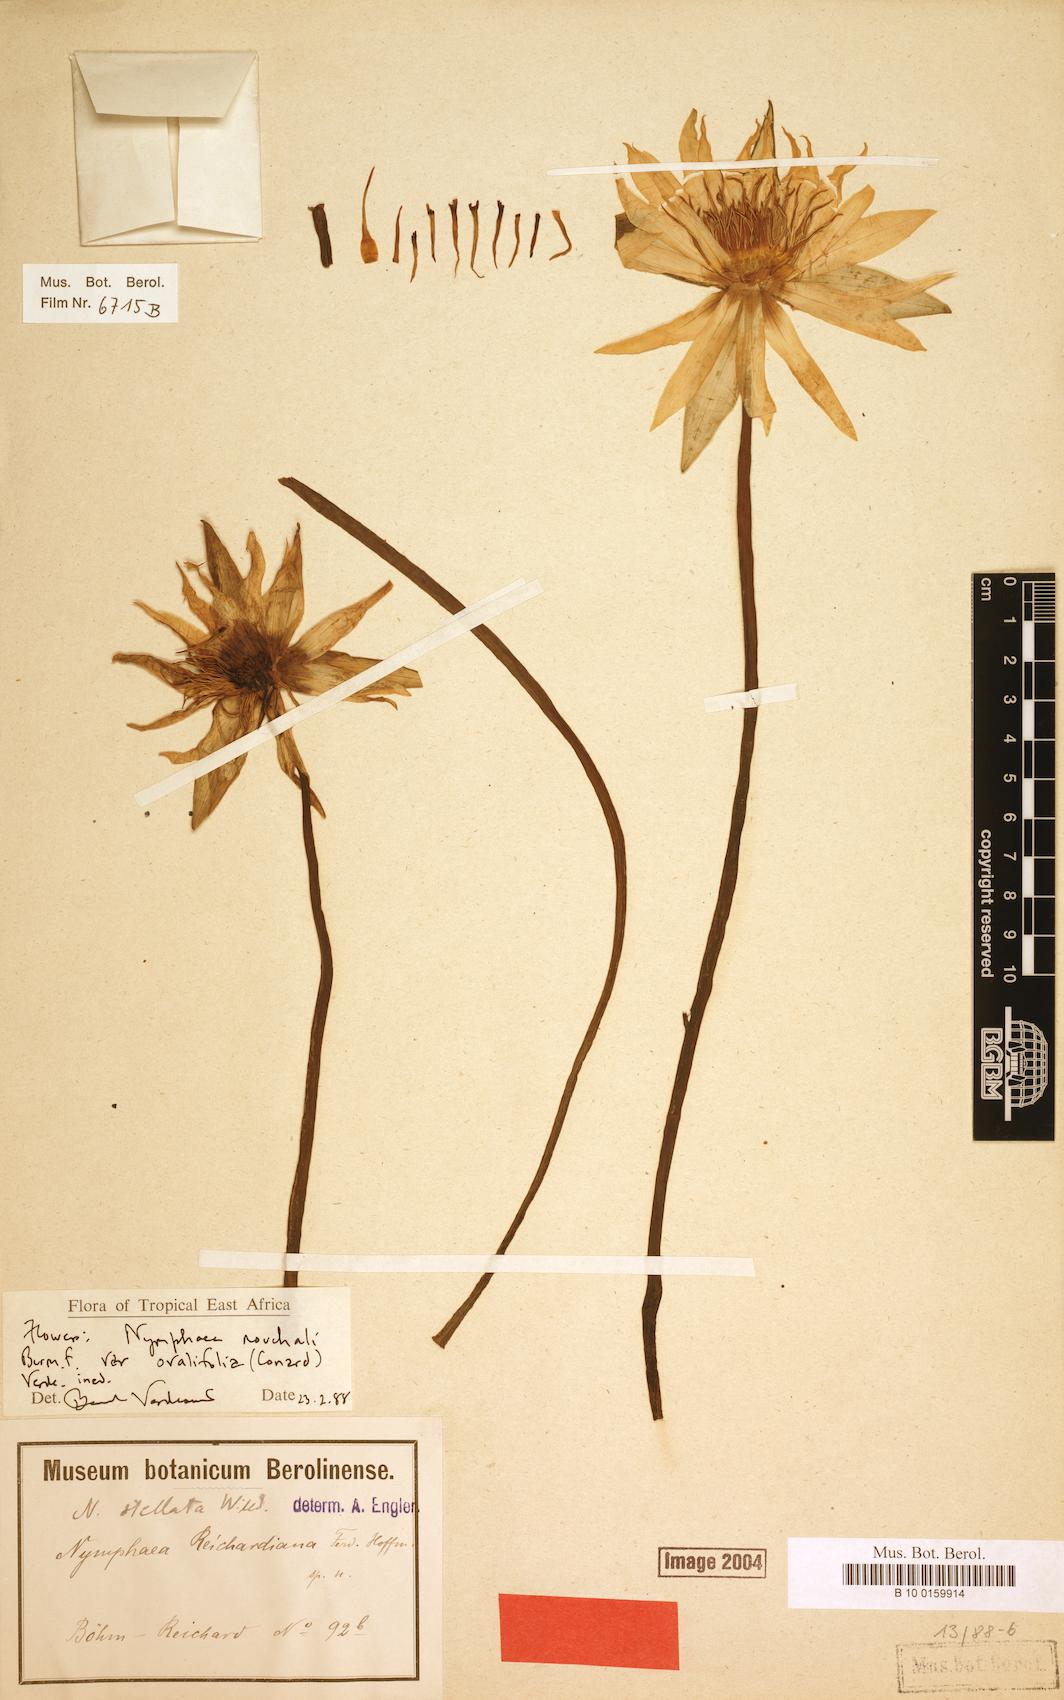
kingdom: Plantae
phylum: Tracheophyta
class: Magnoliopsida
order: Nymphaeales
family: Nymphaeaceae
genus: Nymphaea
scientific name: Nymphaea nouchali
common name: Blue lotus
